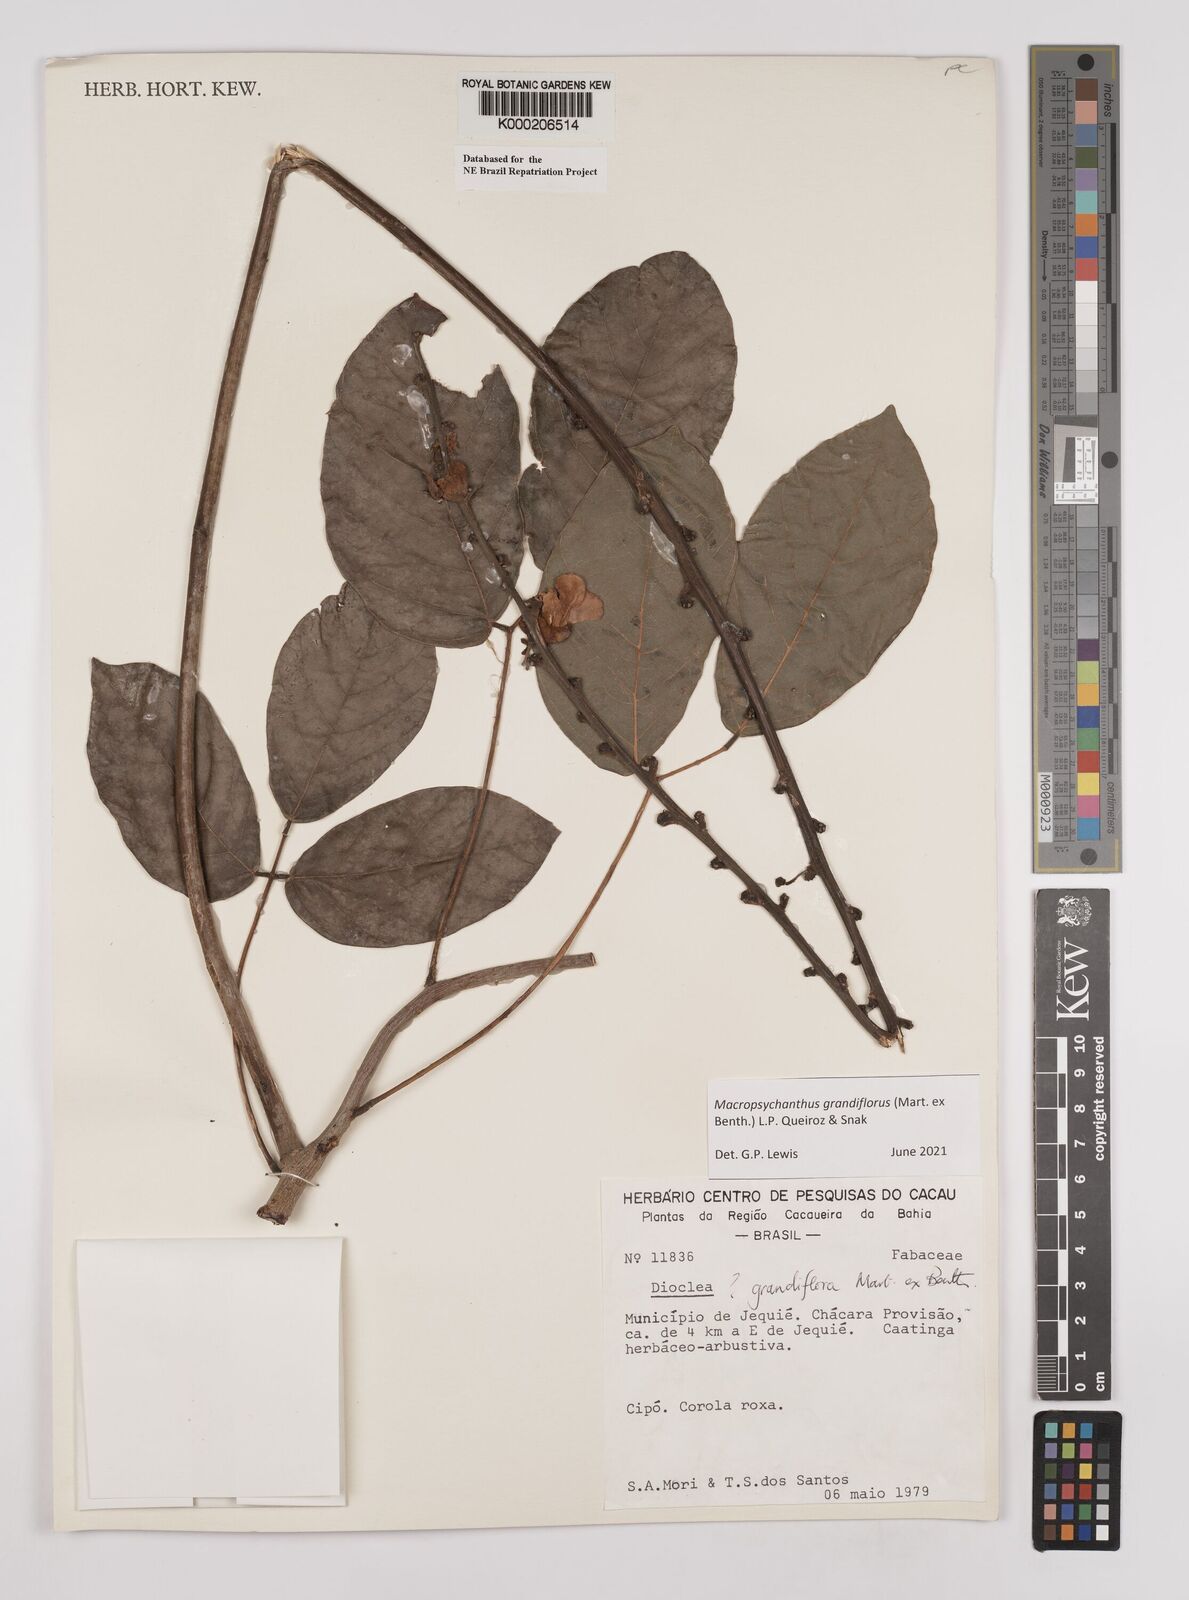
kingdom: Plantae
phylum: Tracheophyta
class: Magnoliopsida
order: Fabales
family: Fabaceae
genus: Macropsychanthus
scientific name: Macropsychanthus grandiflorus
